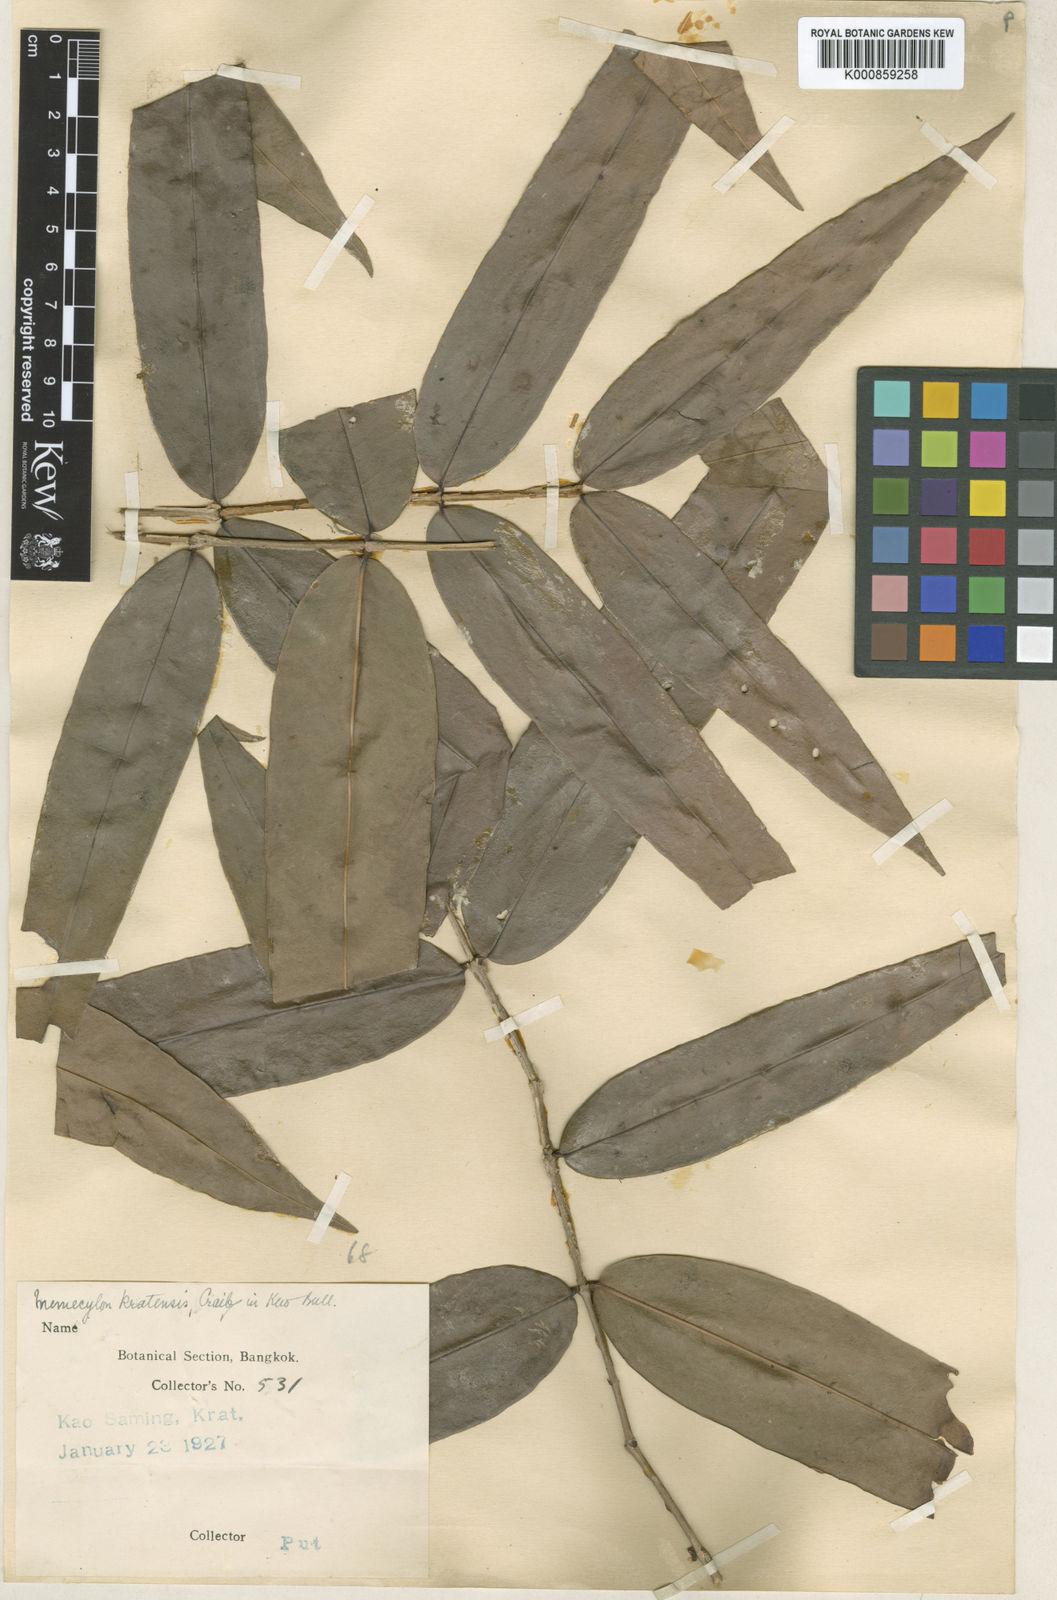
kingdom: Plantae
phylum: Tracheophyta
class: Magnoliopsida
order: Myrtales
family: Melastomataceae
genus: Memecylon
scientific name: Memecylon corticosum
